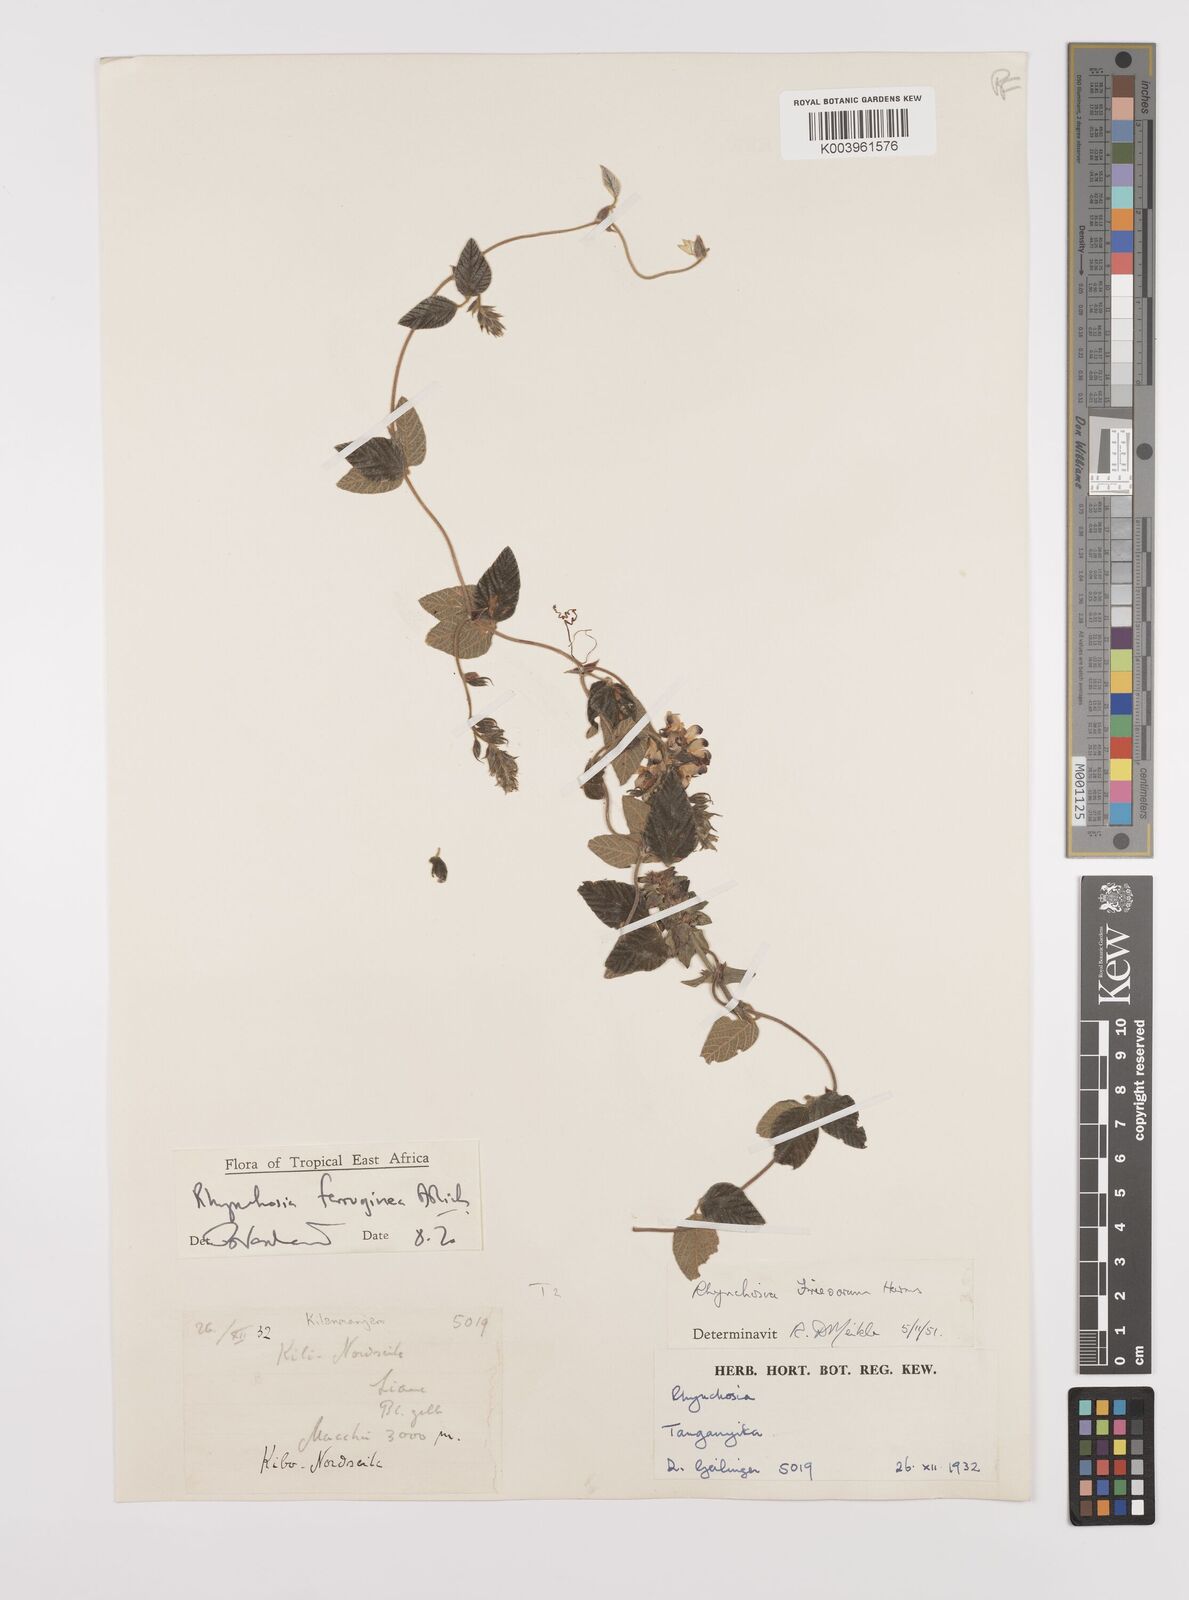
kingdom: Plantae
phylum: Tracheophyta
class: Magnoliopsida
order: Fabales
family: Fabaceae
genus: Rhynchosia
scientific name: Rhynchosia ferruginea
